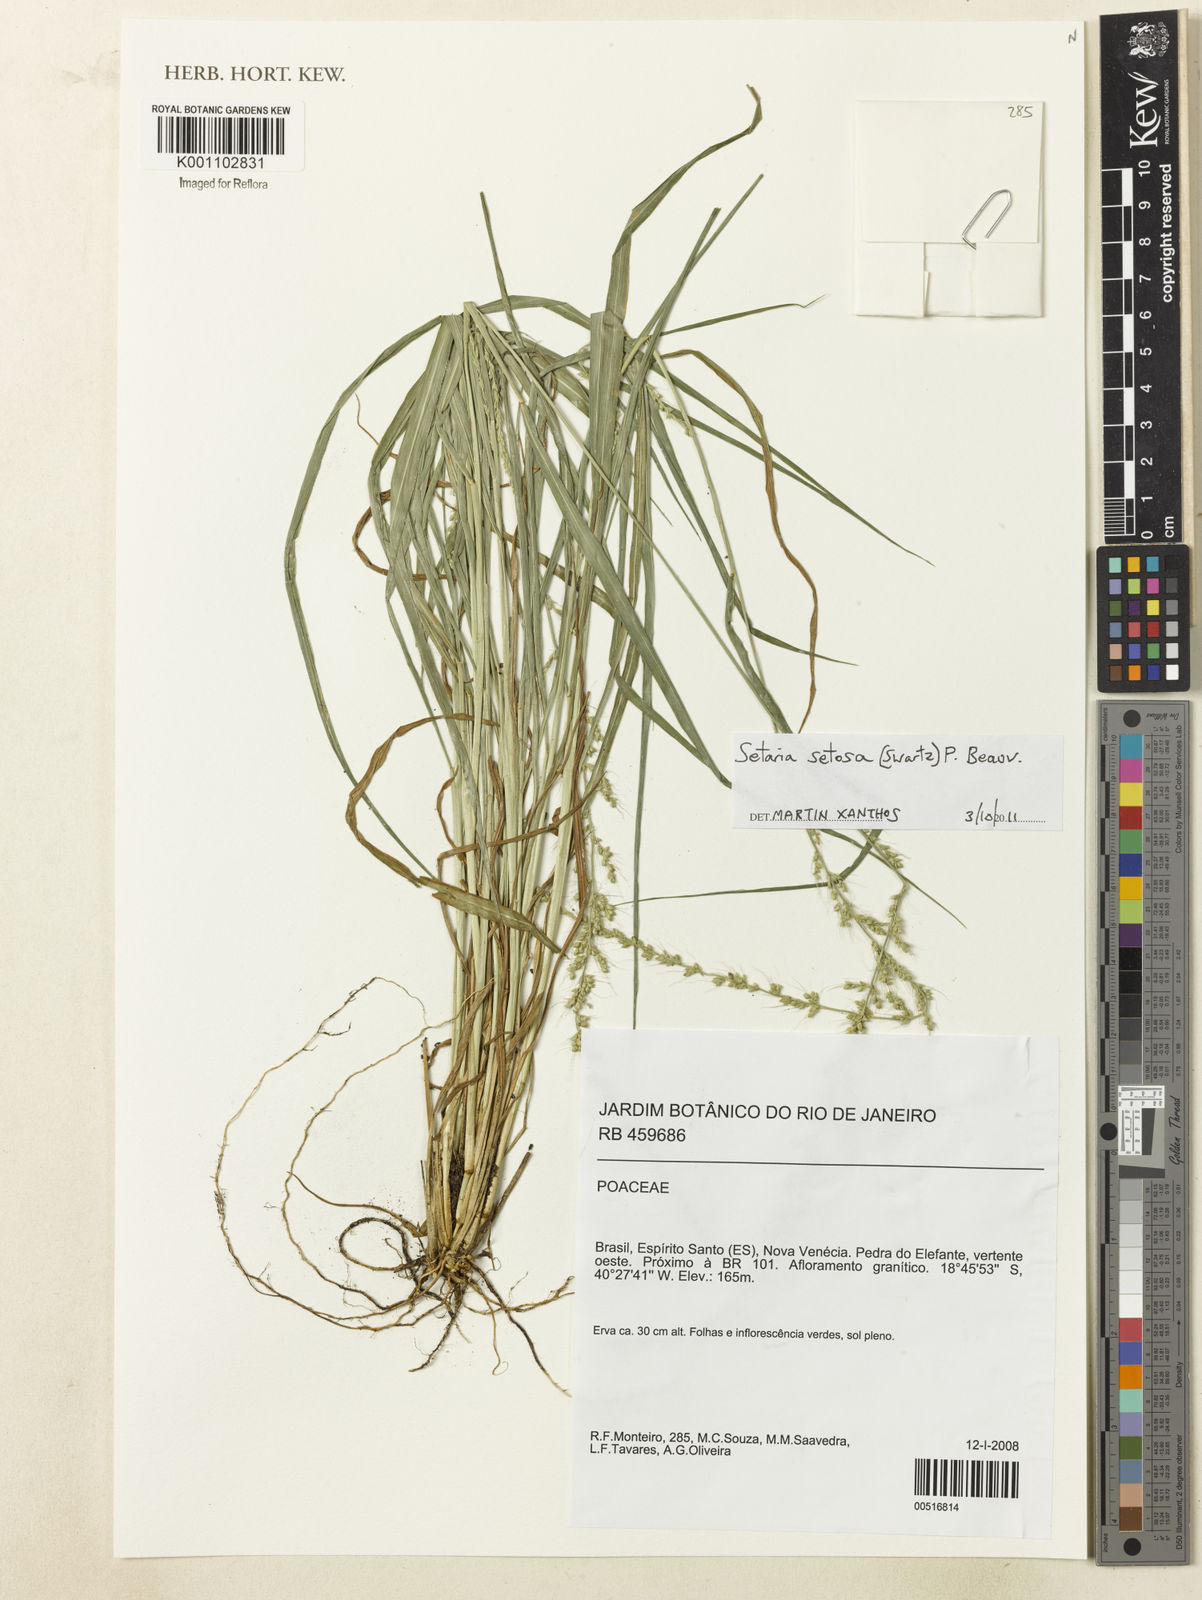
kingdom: Plantae
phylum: Tracheophyta
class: Liliopsida
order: Poales
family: Poaceae
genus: Setaria
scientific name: Setaria setosa
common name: West indies bristle grass
